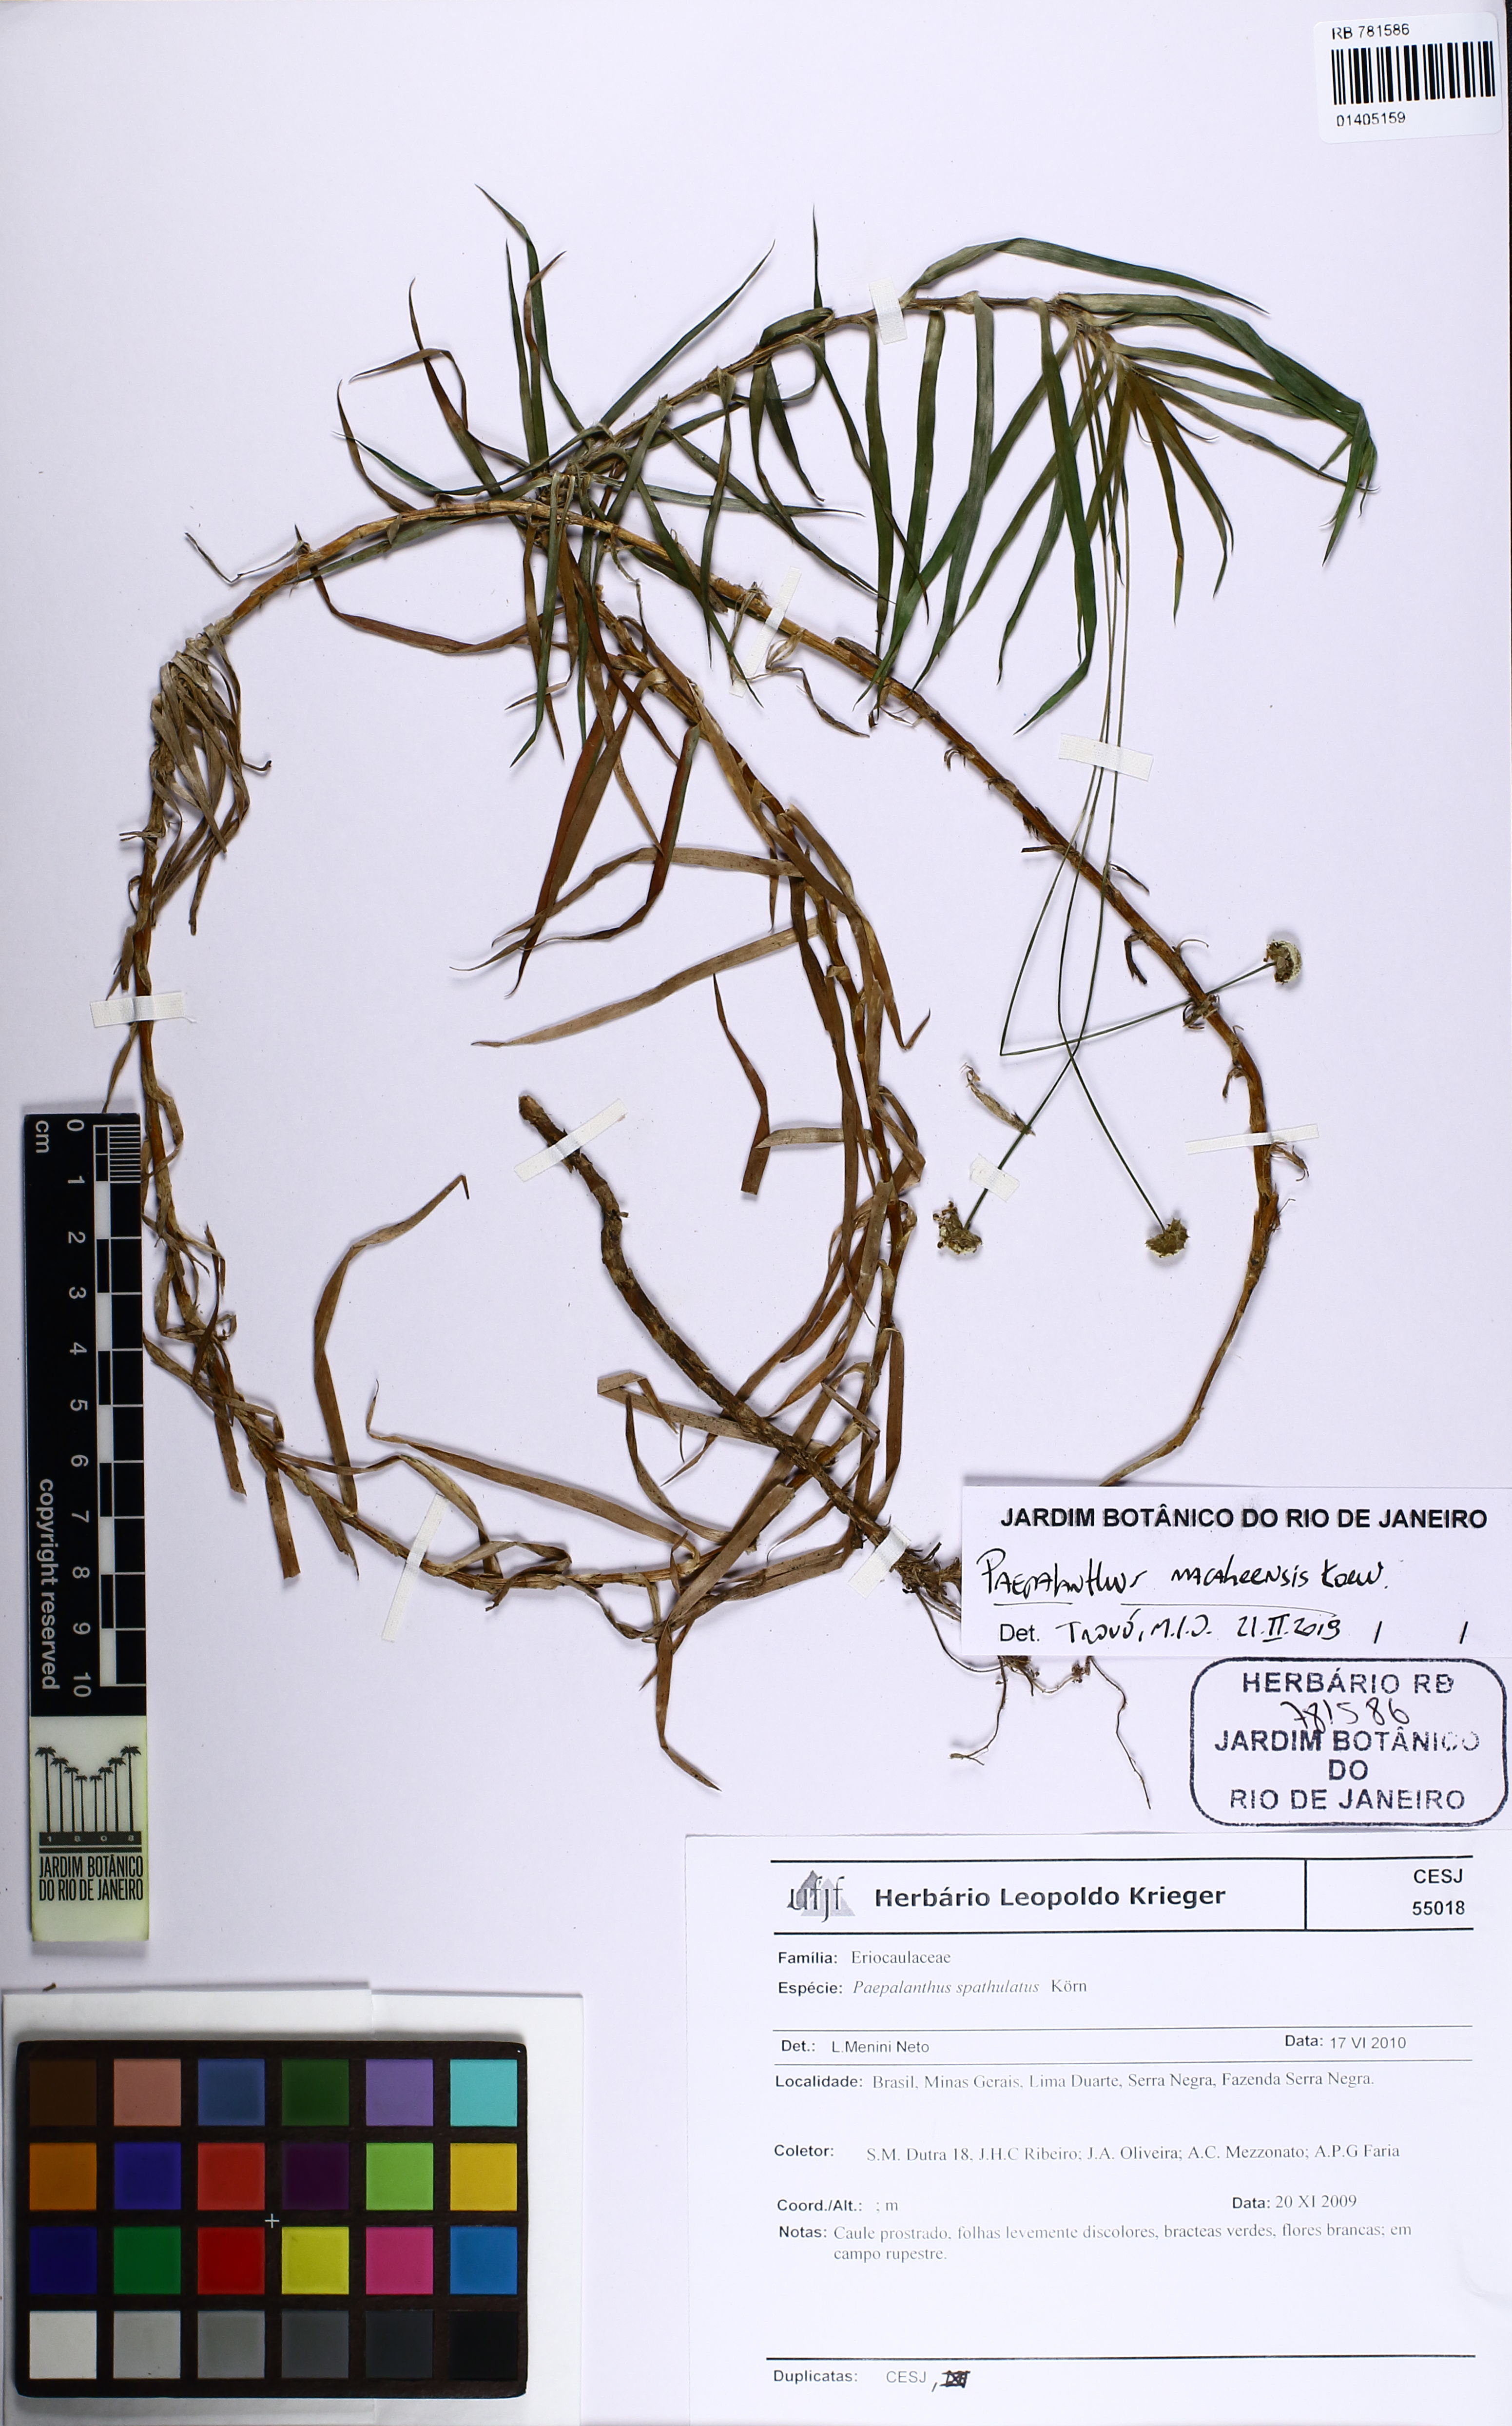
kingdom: Plantae
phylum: Tracheophyta
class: Liliopsida
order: Poales
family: Eriocaulaceae
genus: Paepalanthus
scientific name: Paepalanthus macaheensis
